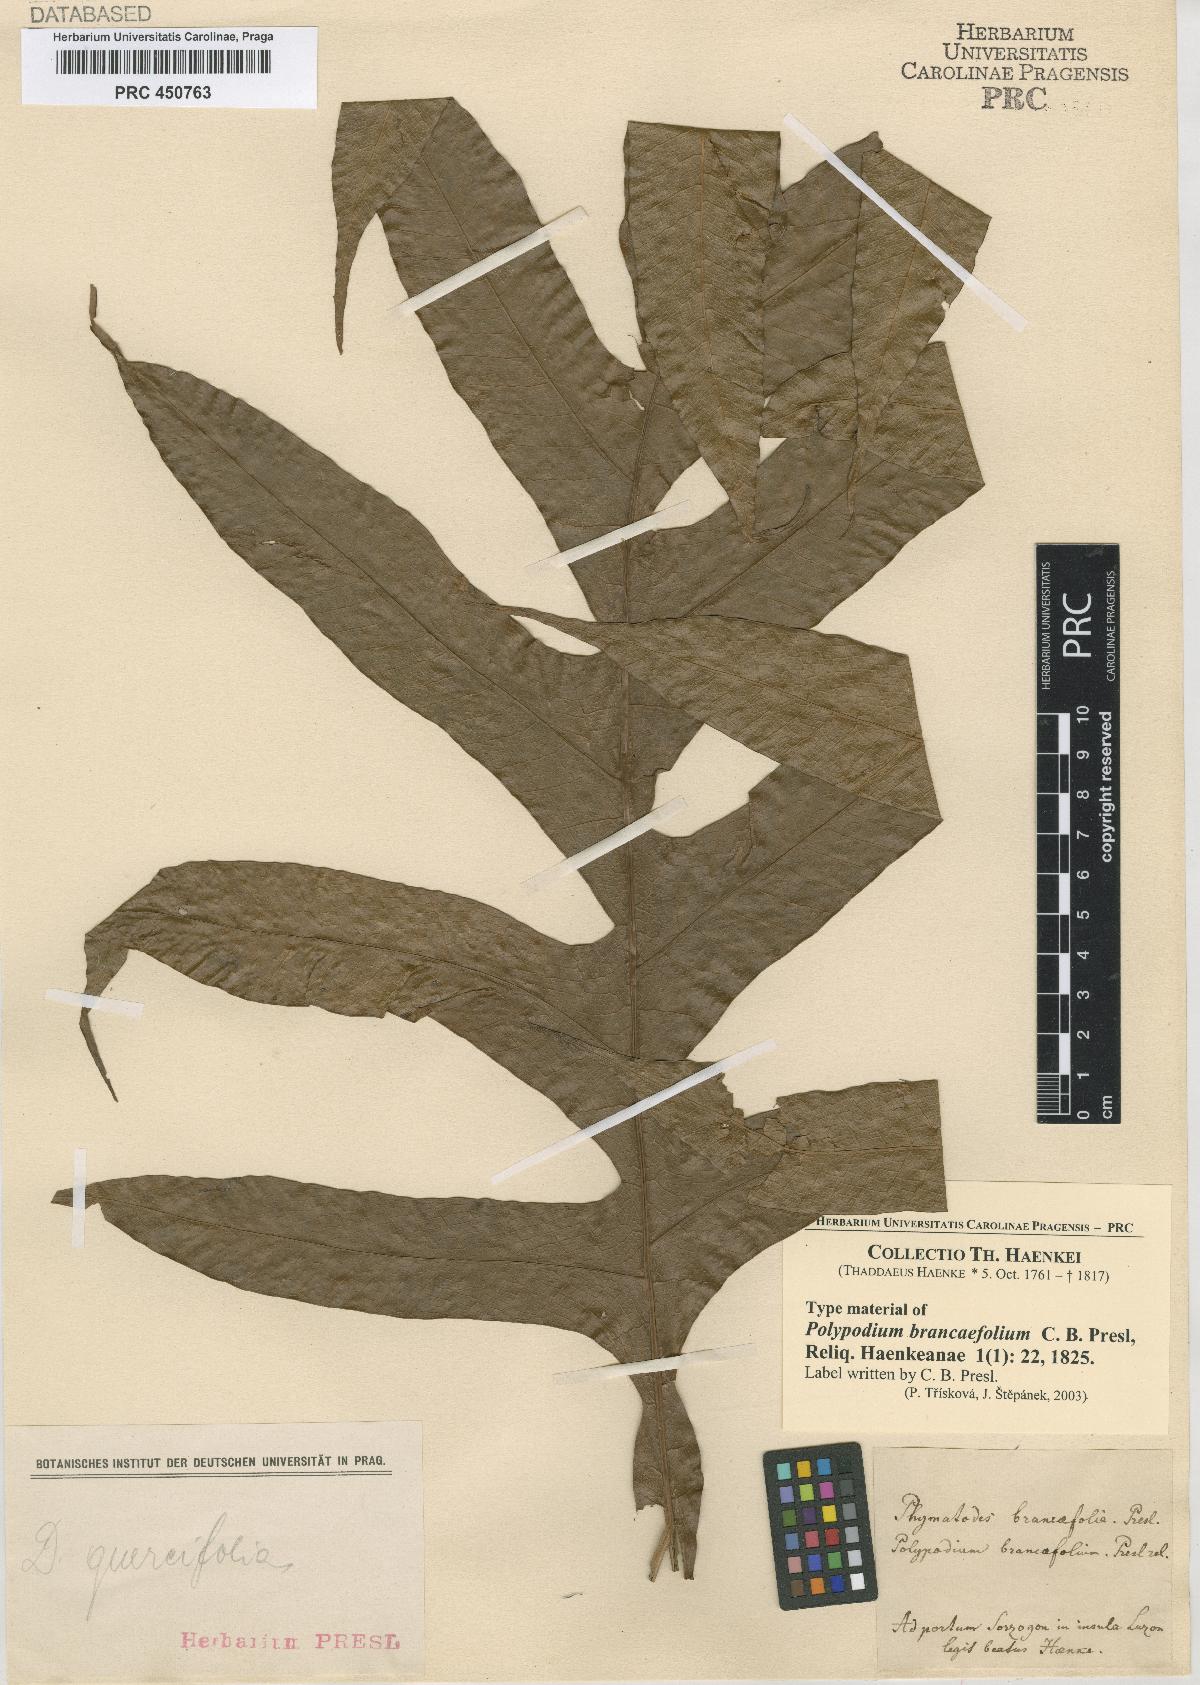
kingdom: Plantae
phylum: Tracheophyta
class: Polypodiopsida
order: Polypodiales
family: Polypodiaceae
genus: Drynaria
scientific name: Drynaria quercifolia
